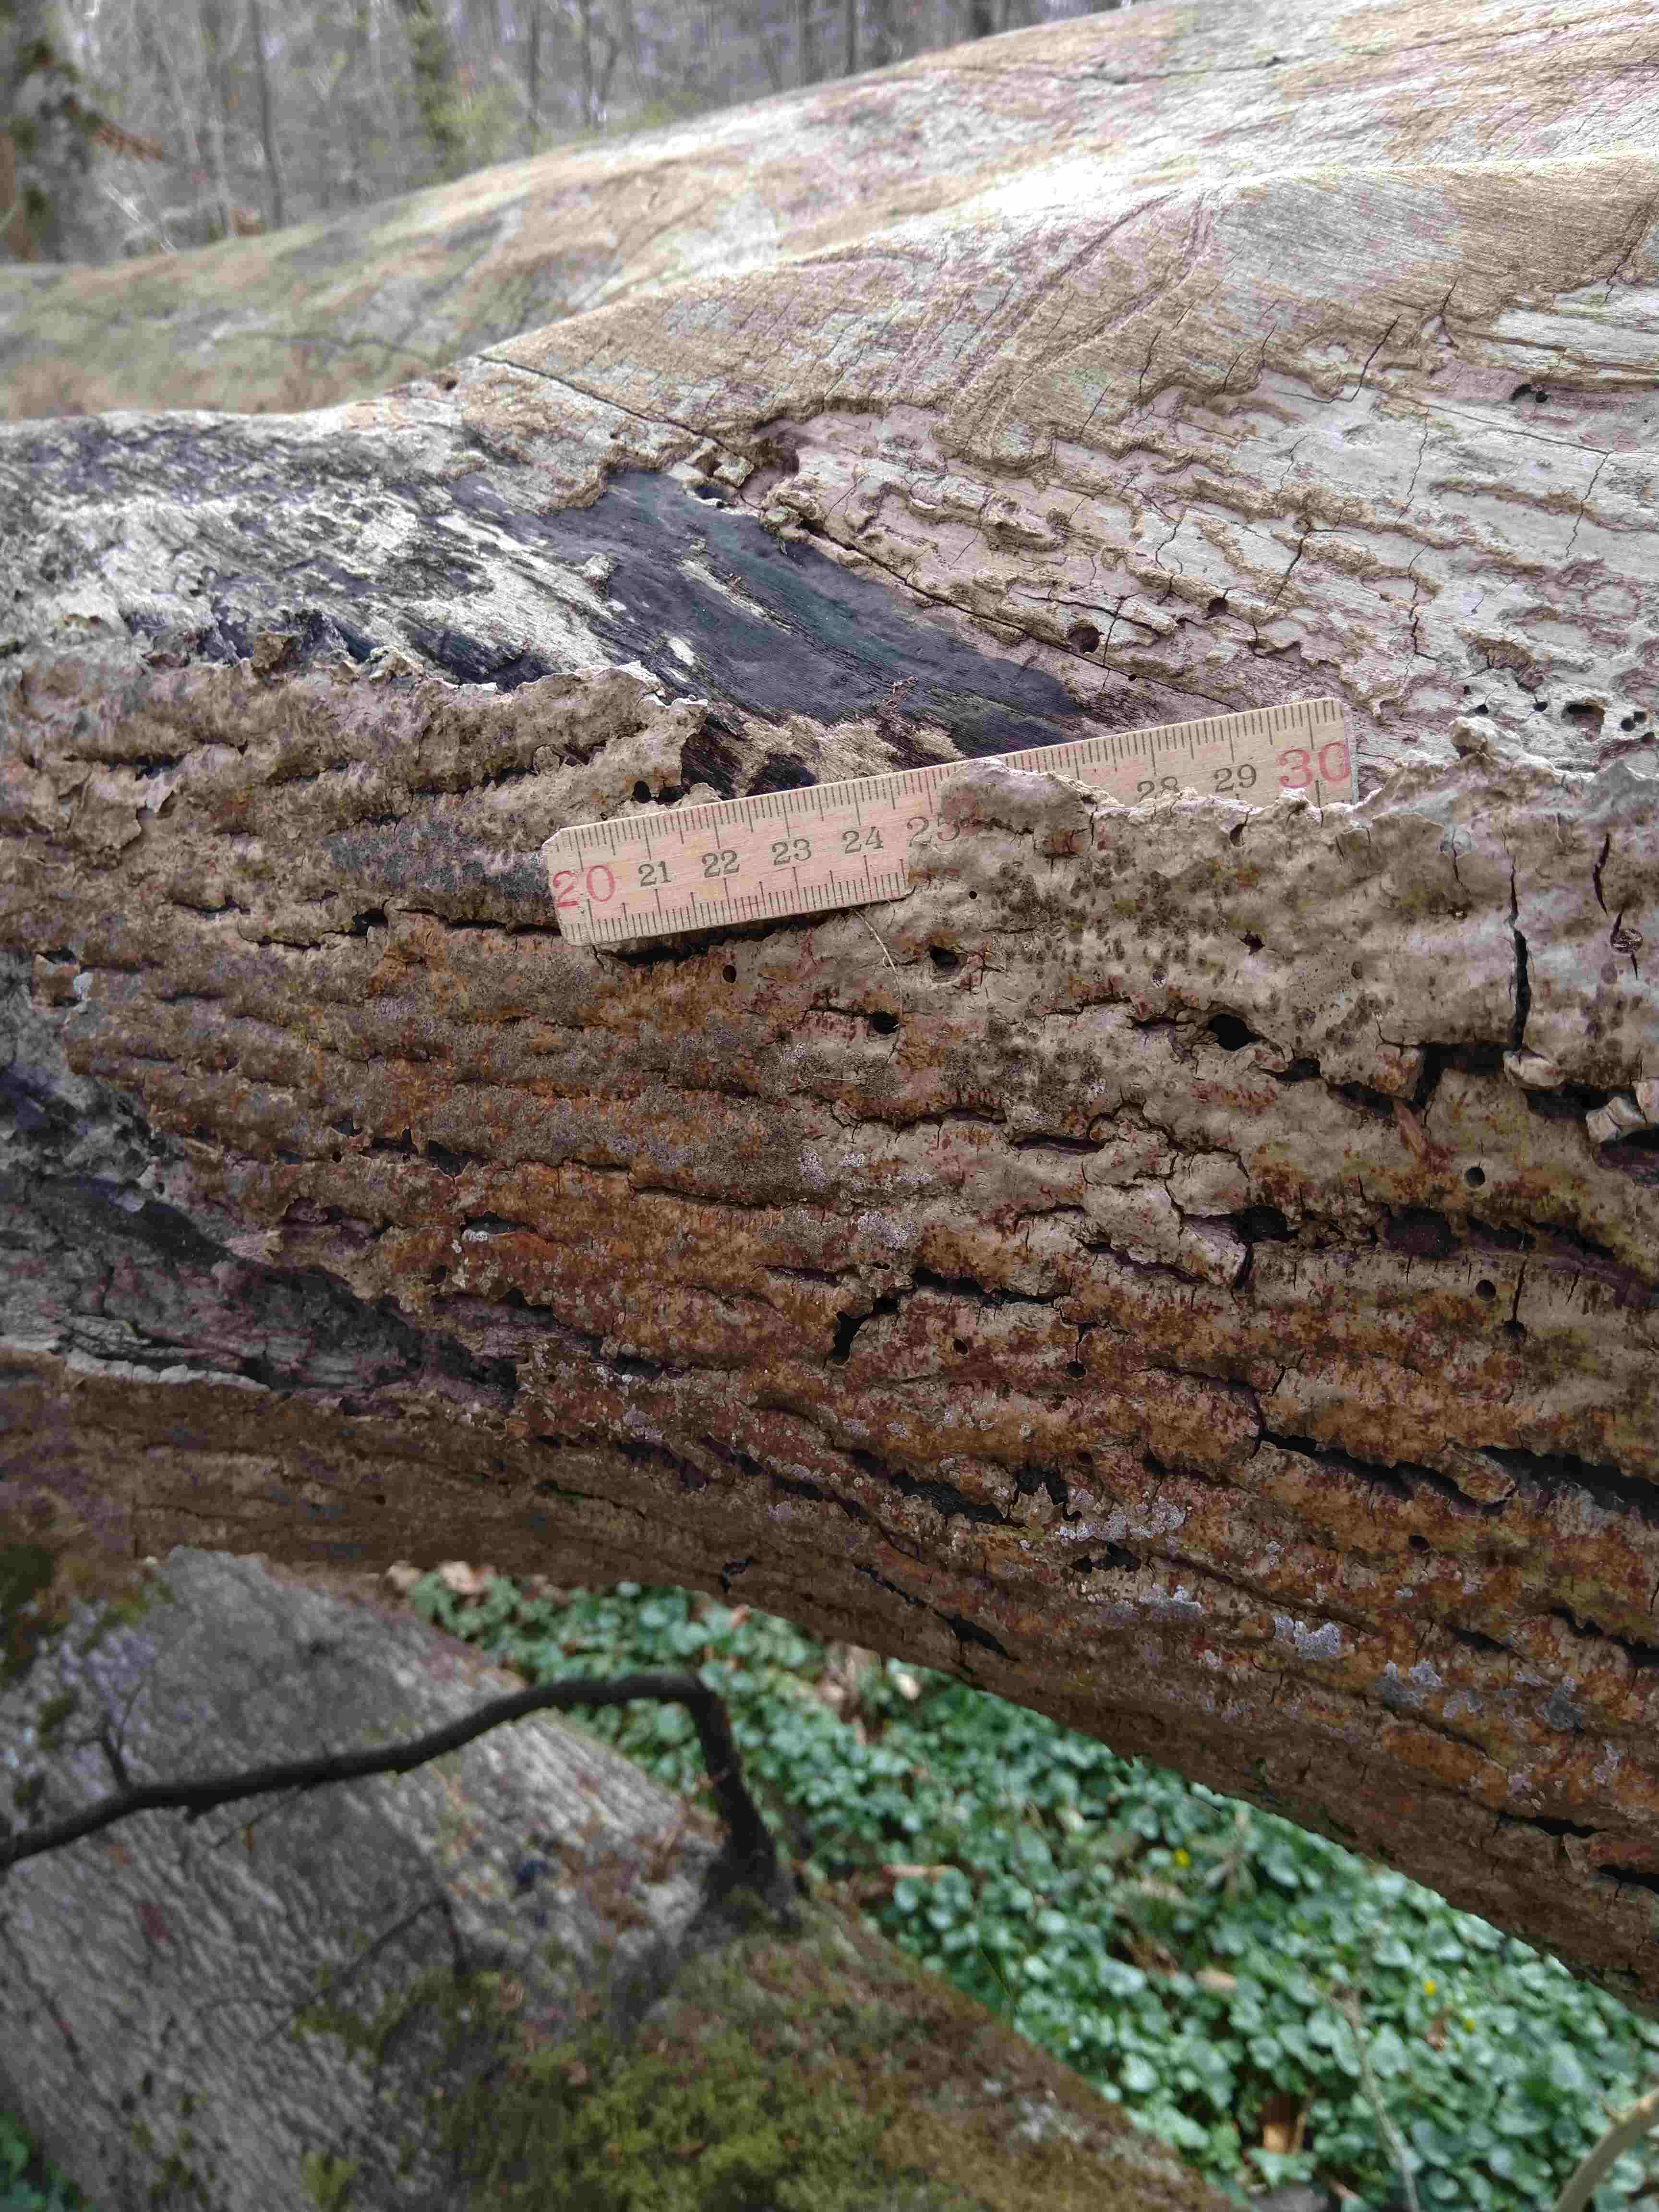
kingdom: Fungi
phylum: Ascomycota
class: Sordariomycetes
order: Xylariales
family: Hypoxylaceae
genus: Hypoxylon
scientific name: Hypoxylon petriniae
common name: nedsænket kulbær
